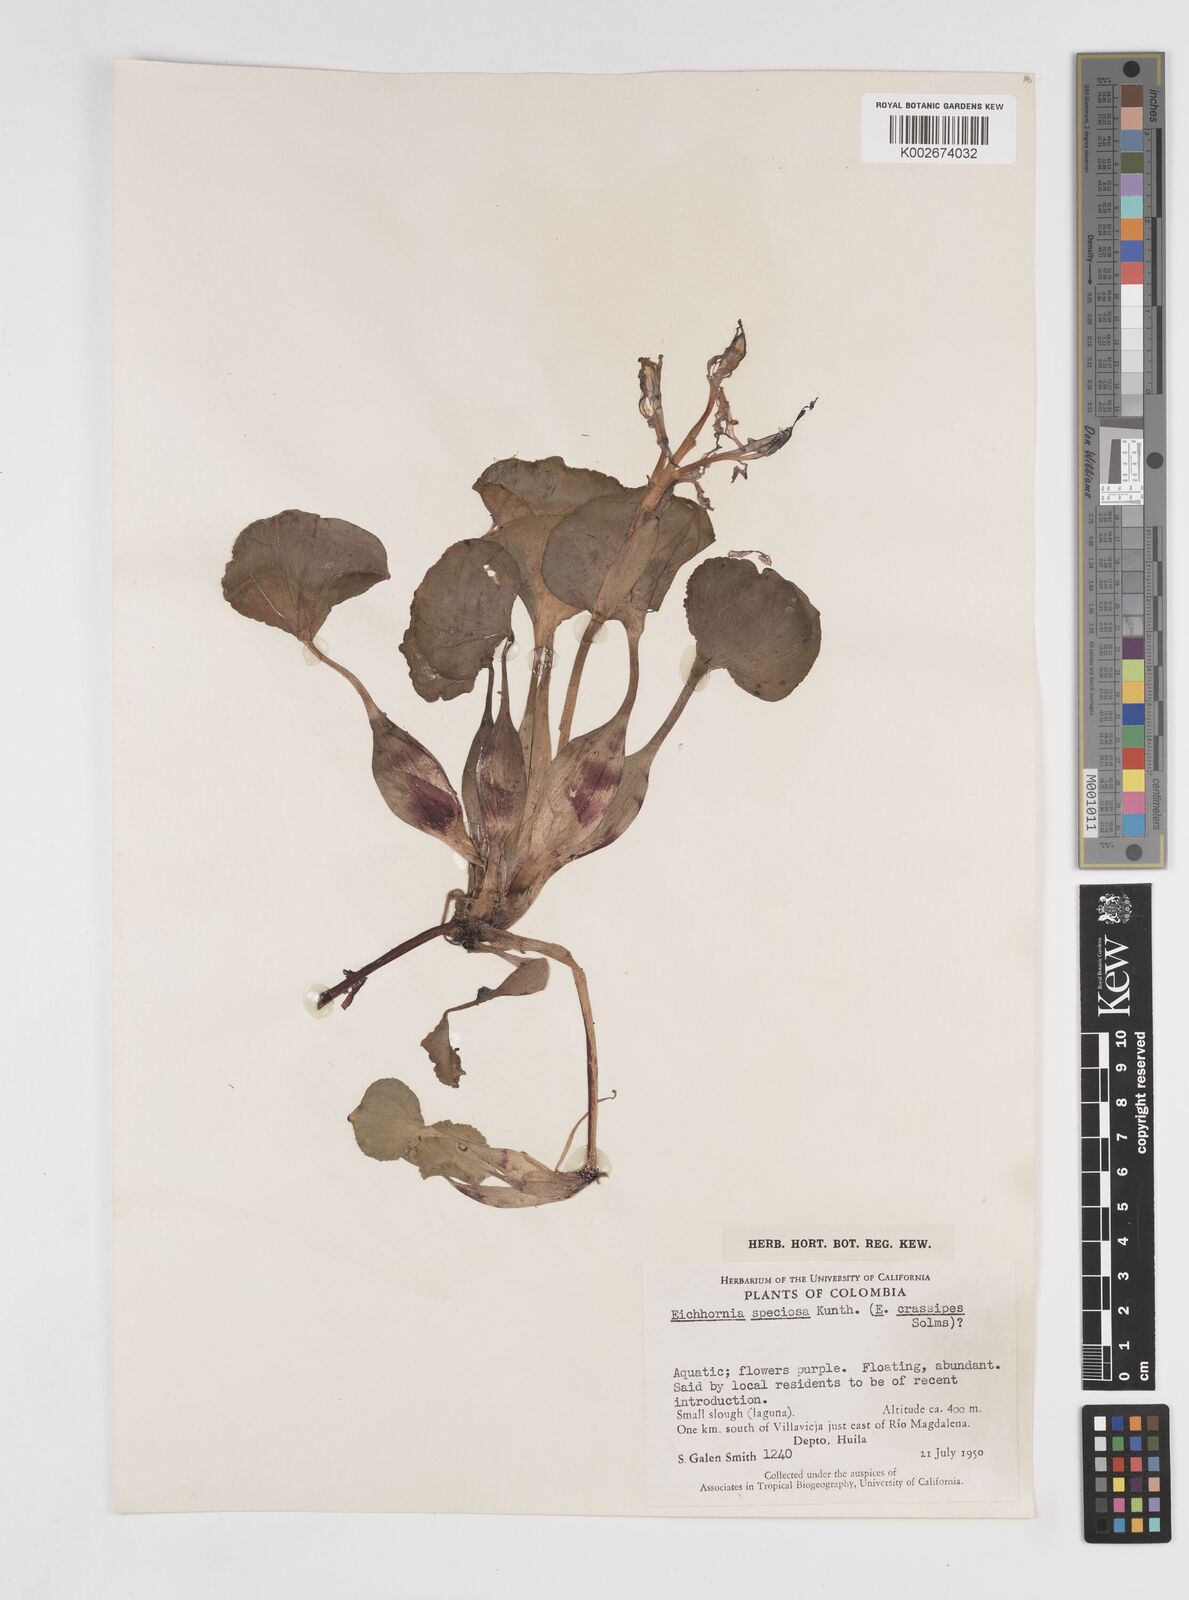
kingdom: Plantae
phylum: Tracheophyta
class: Liliopsida
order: Commelinales
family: Pontederiaceae
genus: Pontederia
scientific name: Pontederia crassipes
